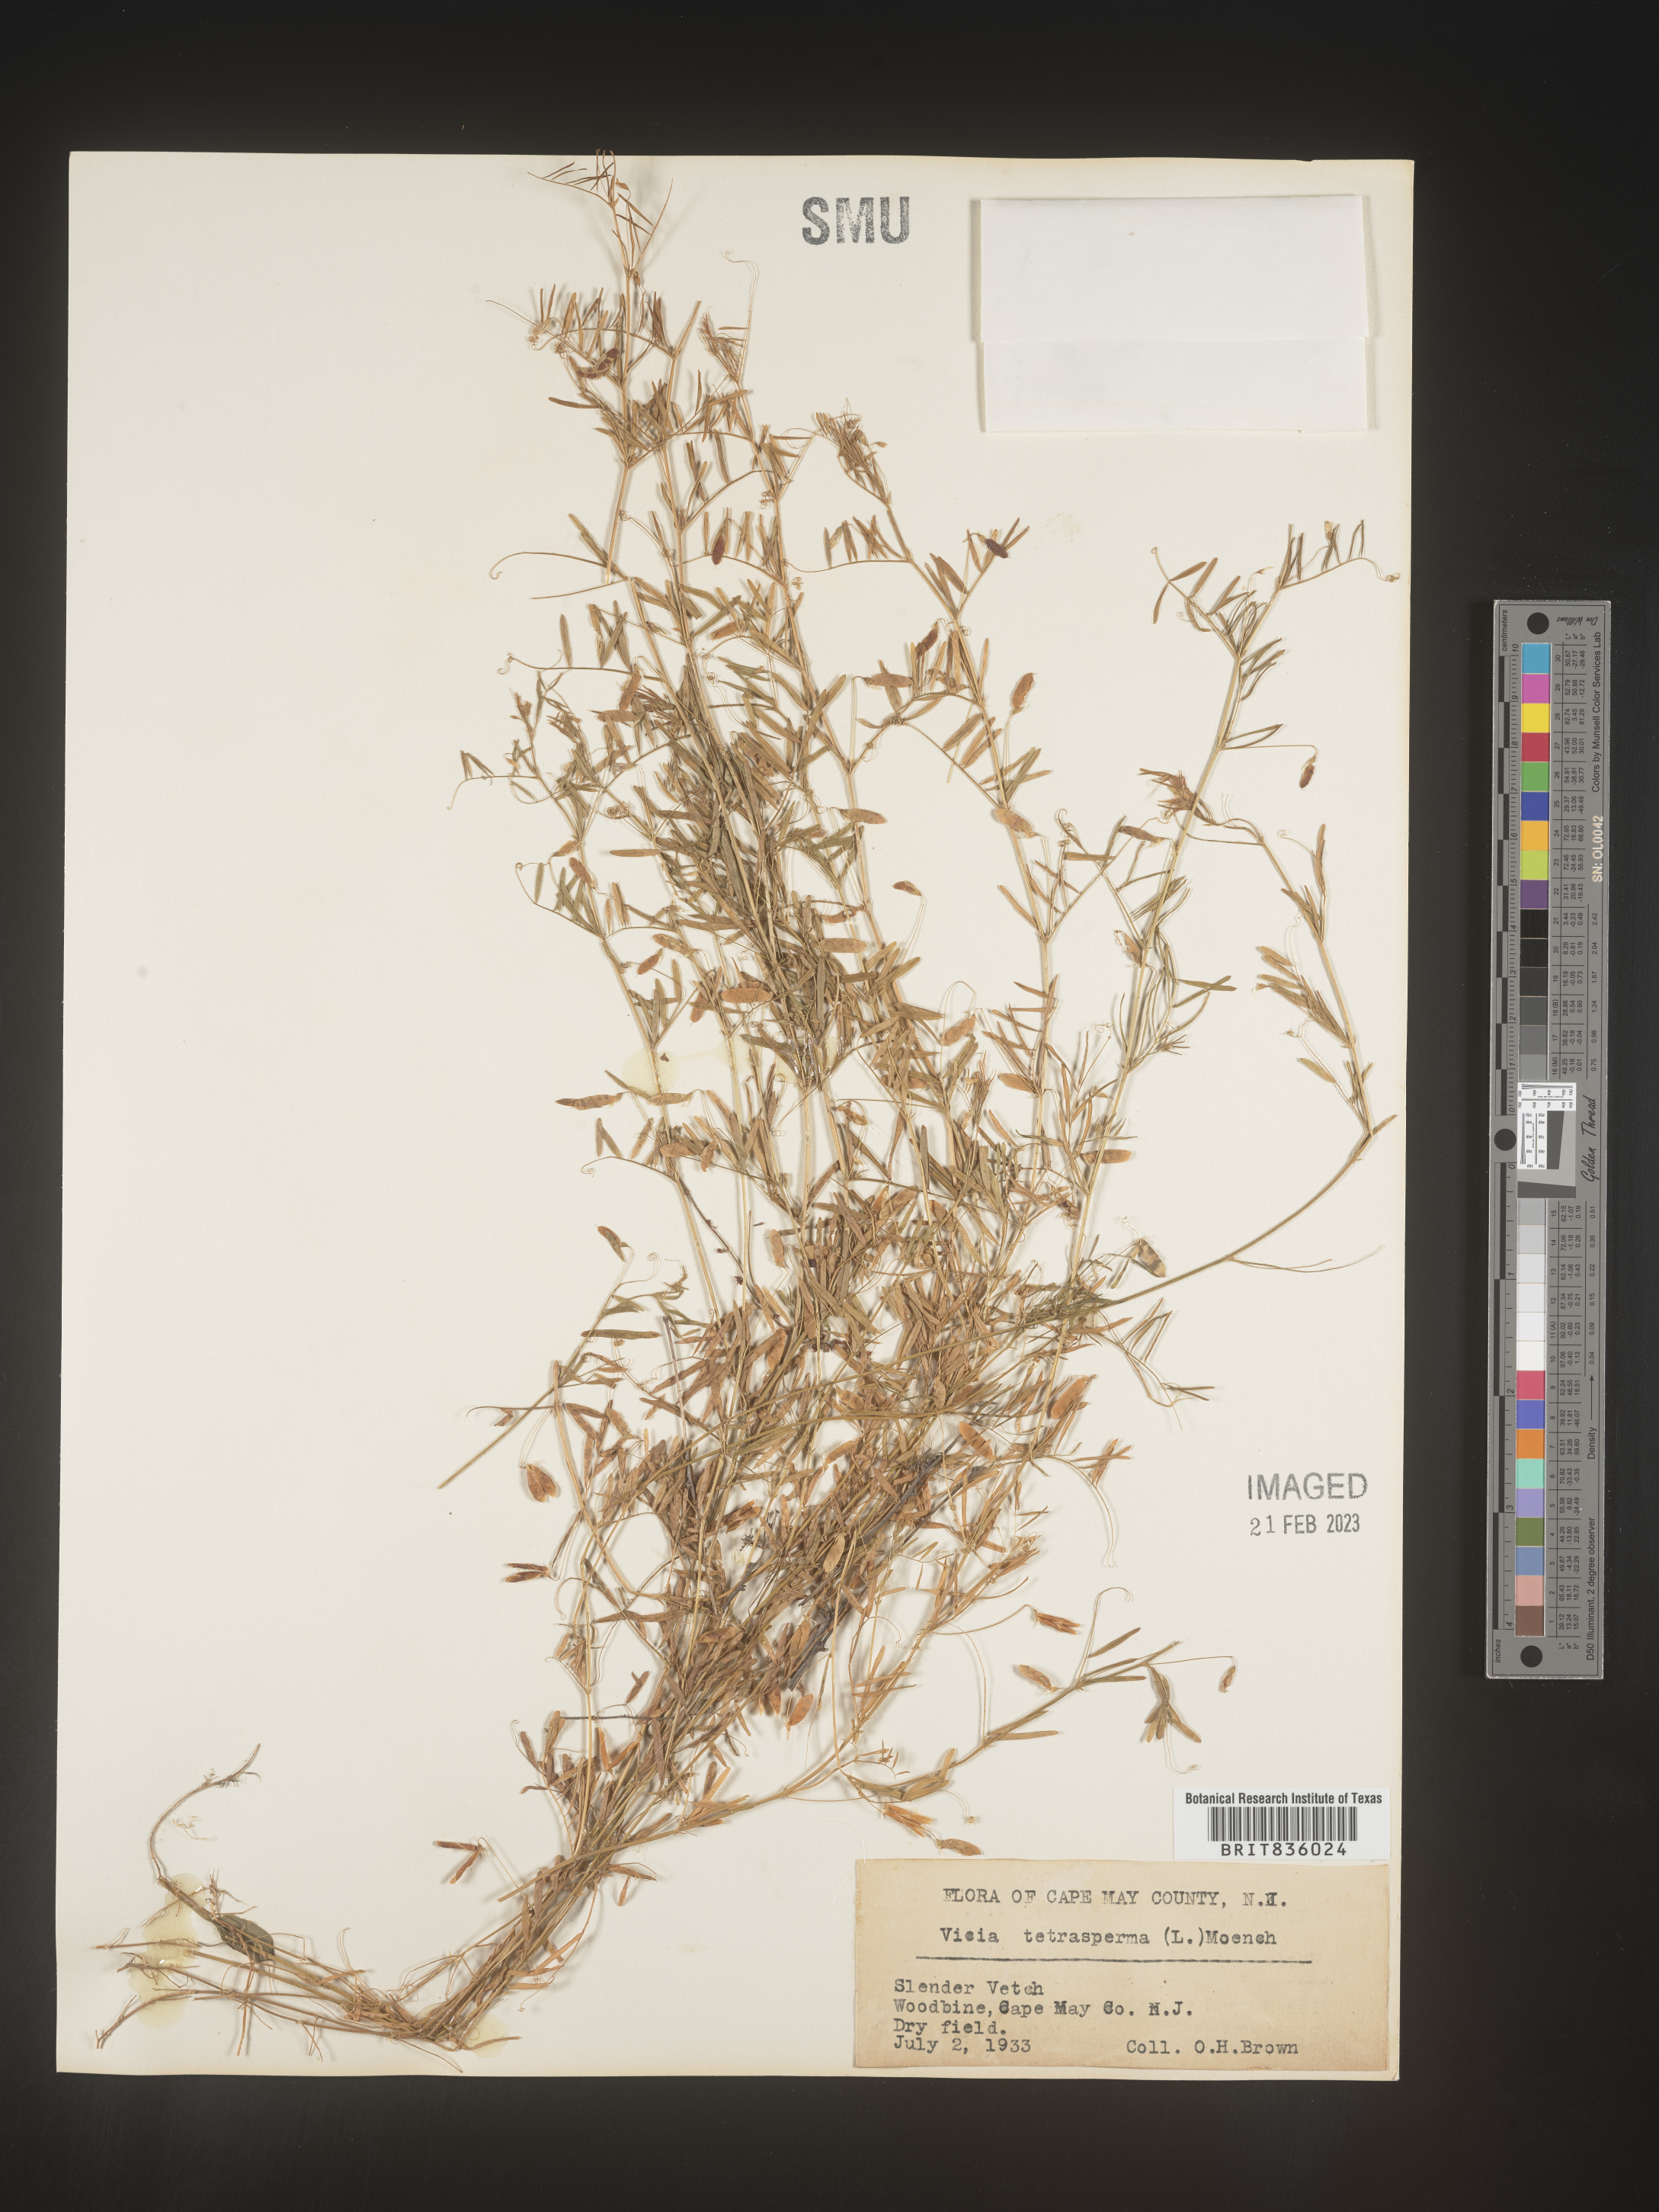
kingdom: Plantae
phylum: Tracheophyta
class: Magnoliopsida
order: Fabales
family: Fabaceae
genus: Vicia
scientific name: Vicia tetrasperma
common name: Smooth tare
